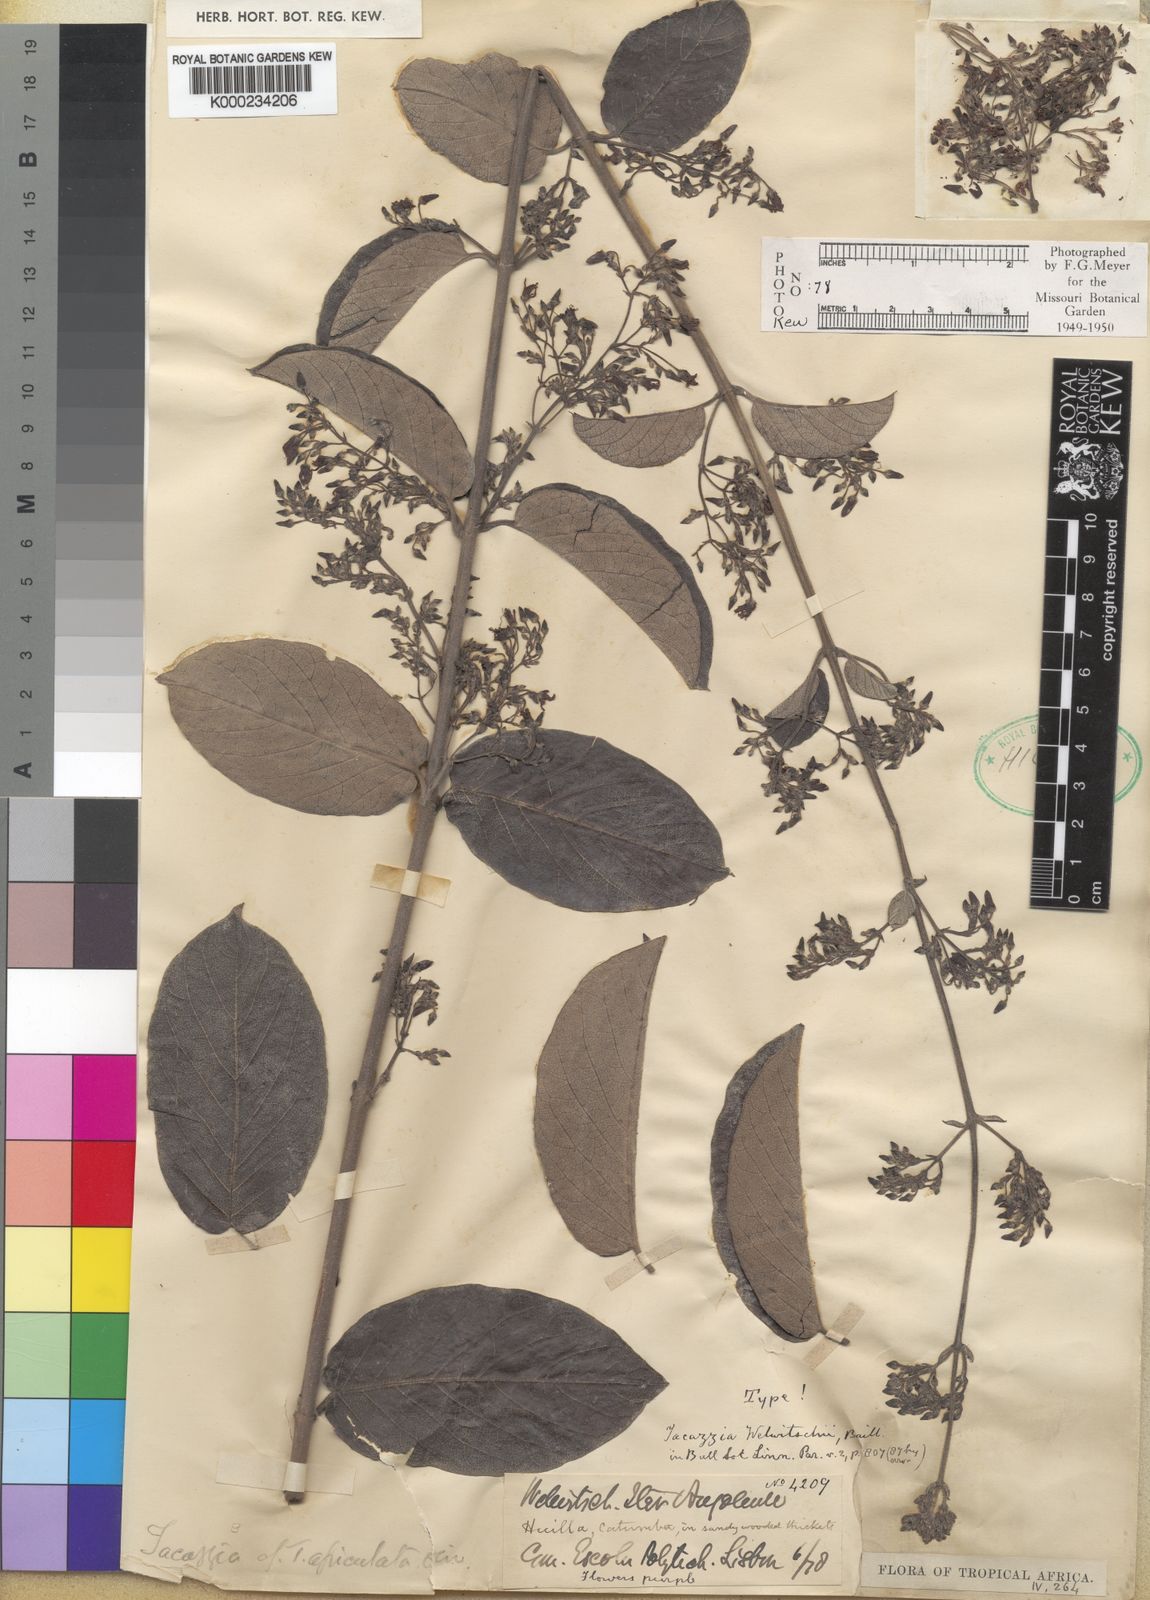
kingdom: Plantae
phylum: Tracheophyta
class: Magnoliopsida
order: Gentianales
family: Apocynaceae
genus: Tacazzea
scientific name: Tacazzea apiculata
